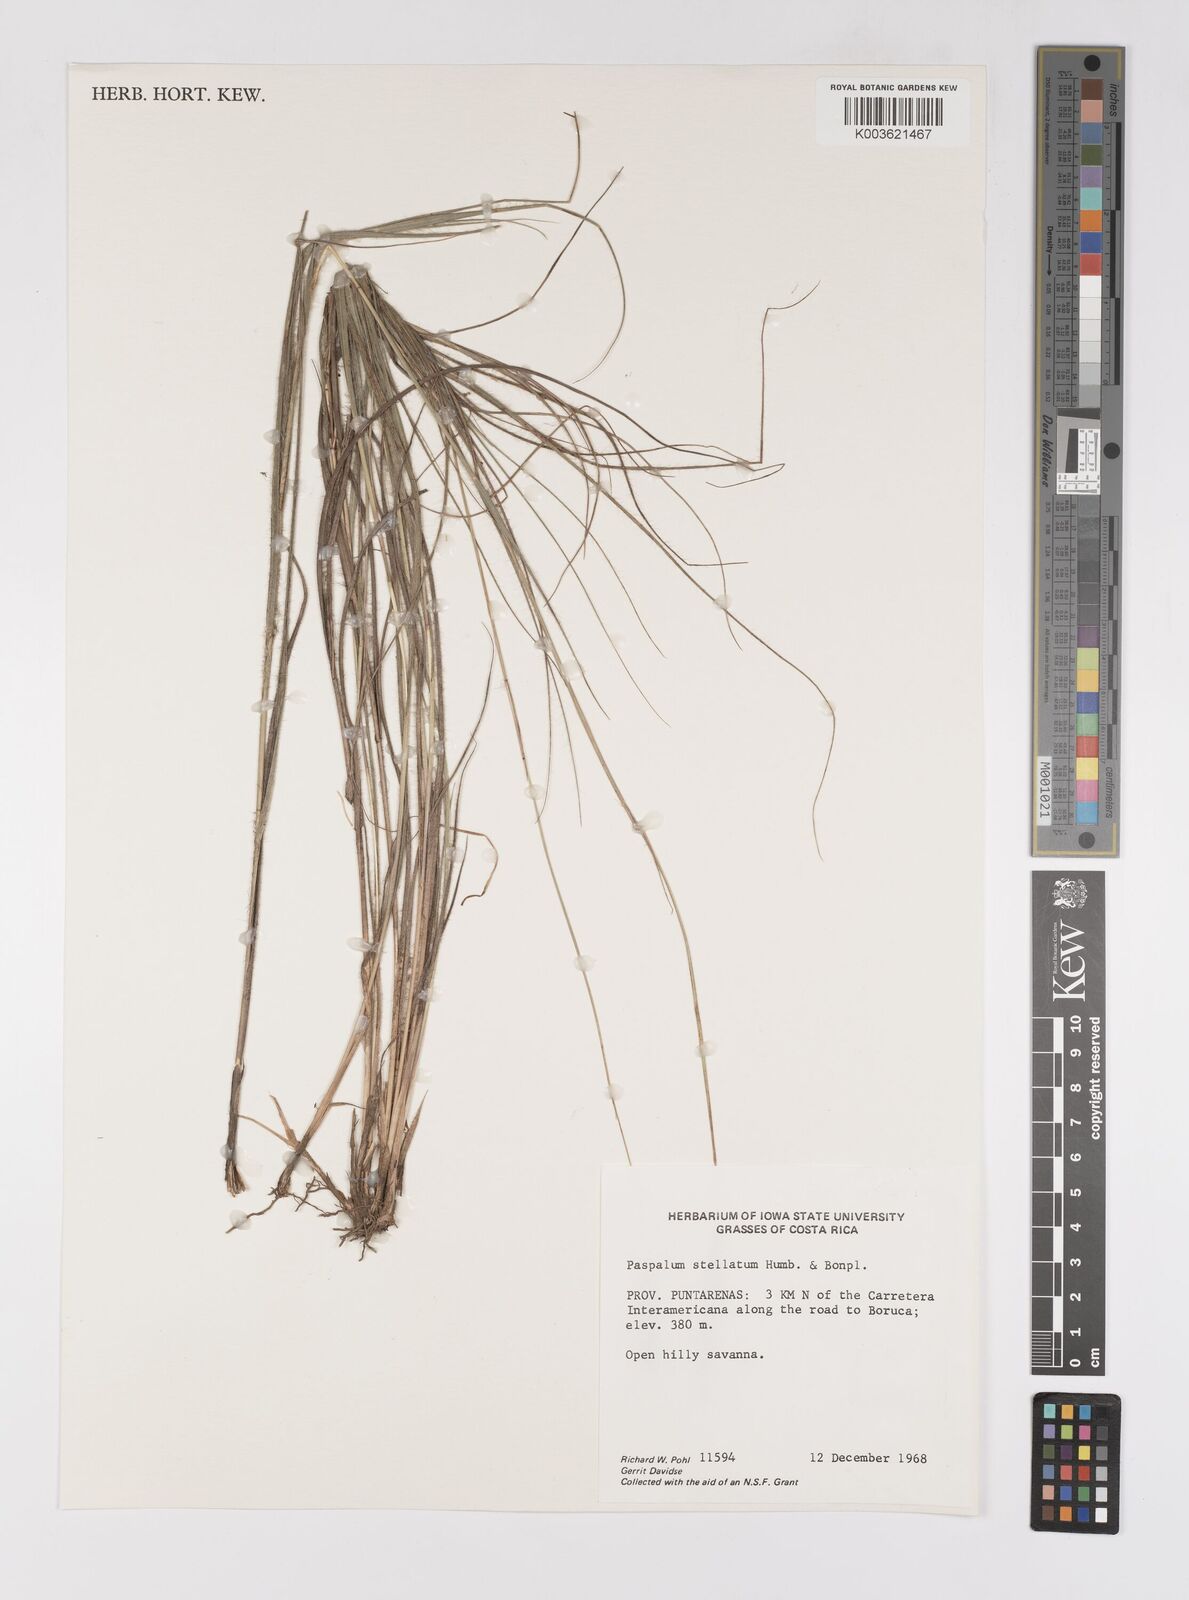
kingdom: Plantae
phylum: Tracheophyta
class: Liliopsida
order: Poales
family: Poaceae
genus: Paspalum
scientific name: Paspalum stellatum
